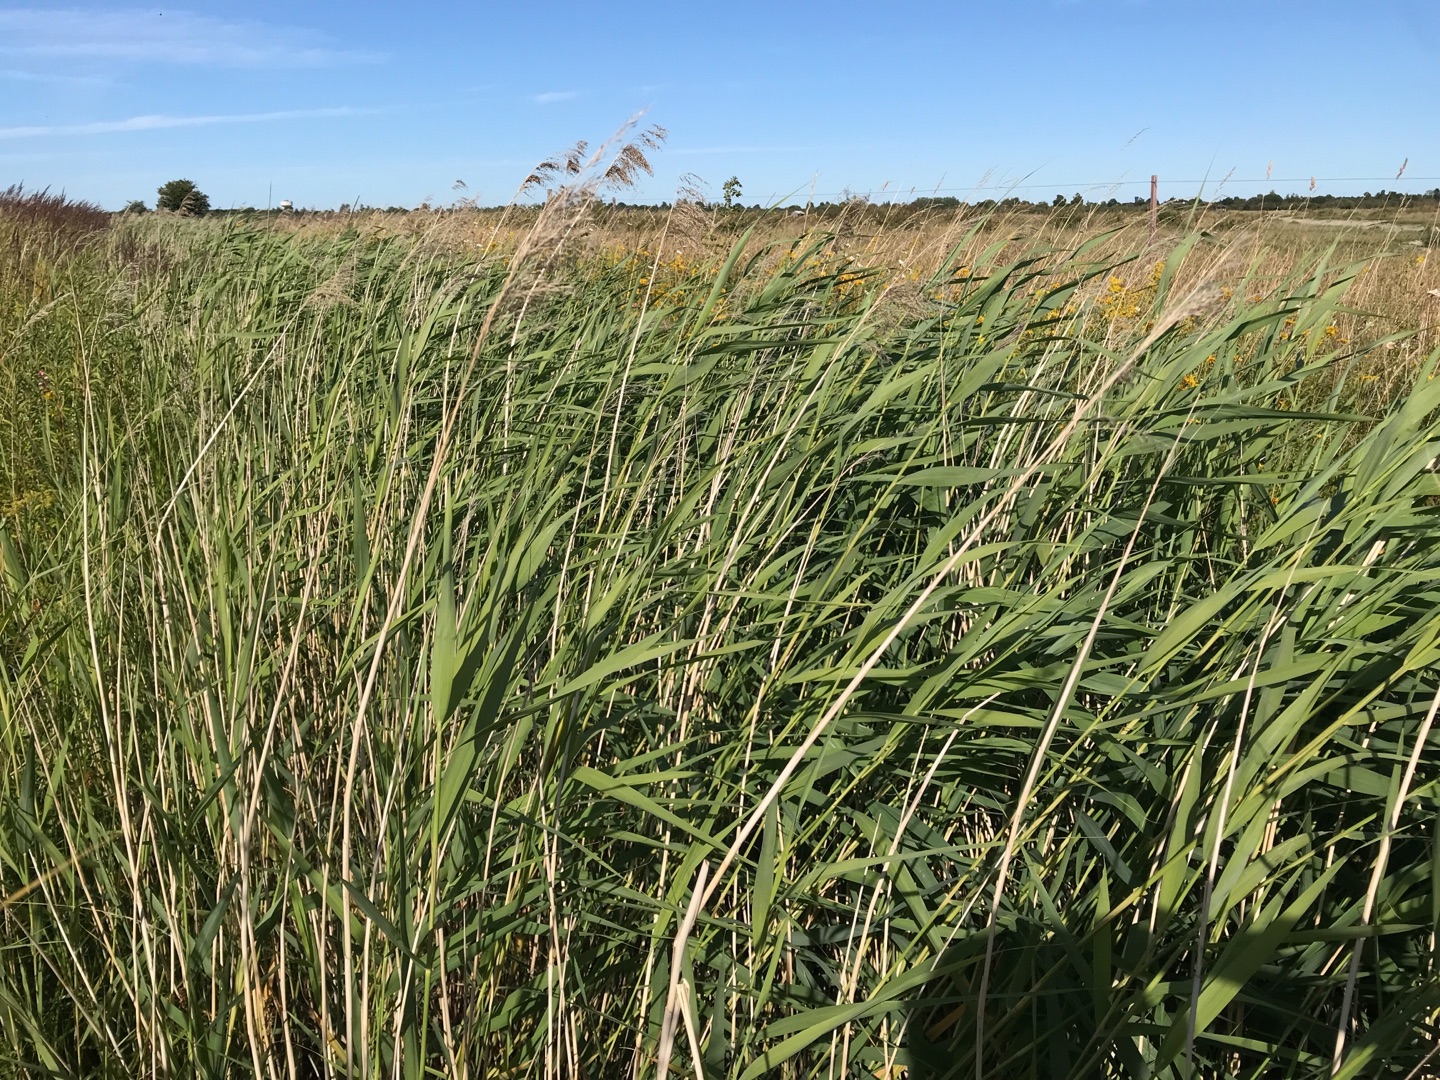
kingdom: Plantae
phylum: Tracheophyta
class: Liliopsida
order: Poales
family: Poaceae
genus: Phragmites
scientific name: Phragmites australis
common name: Tagrør
